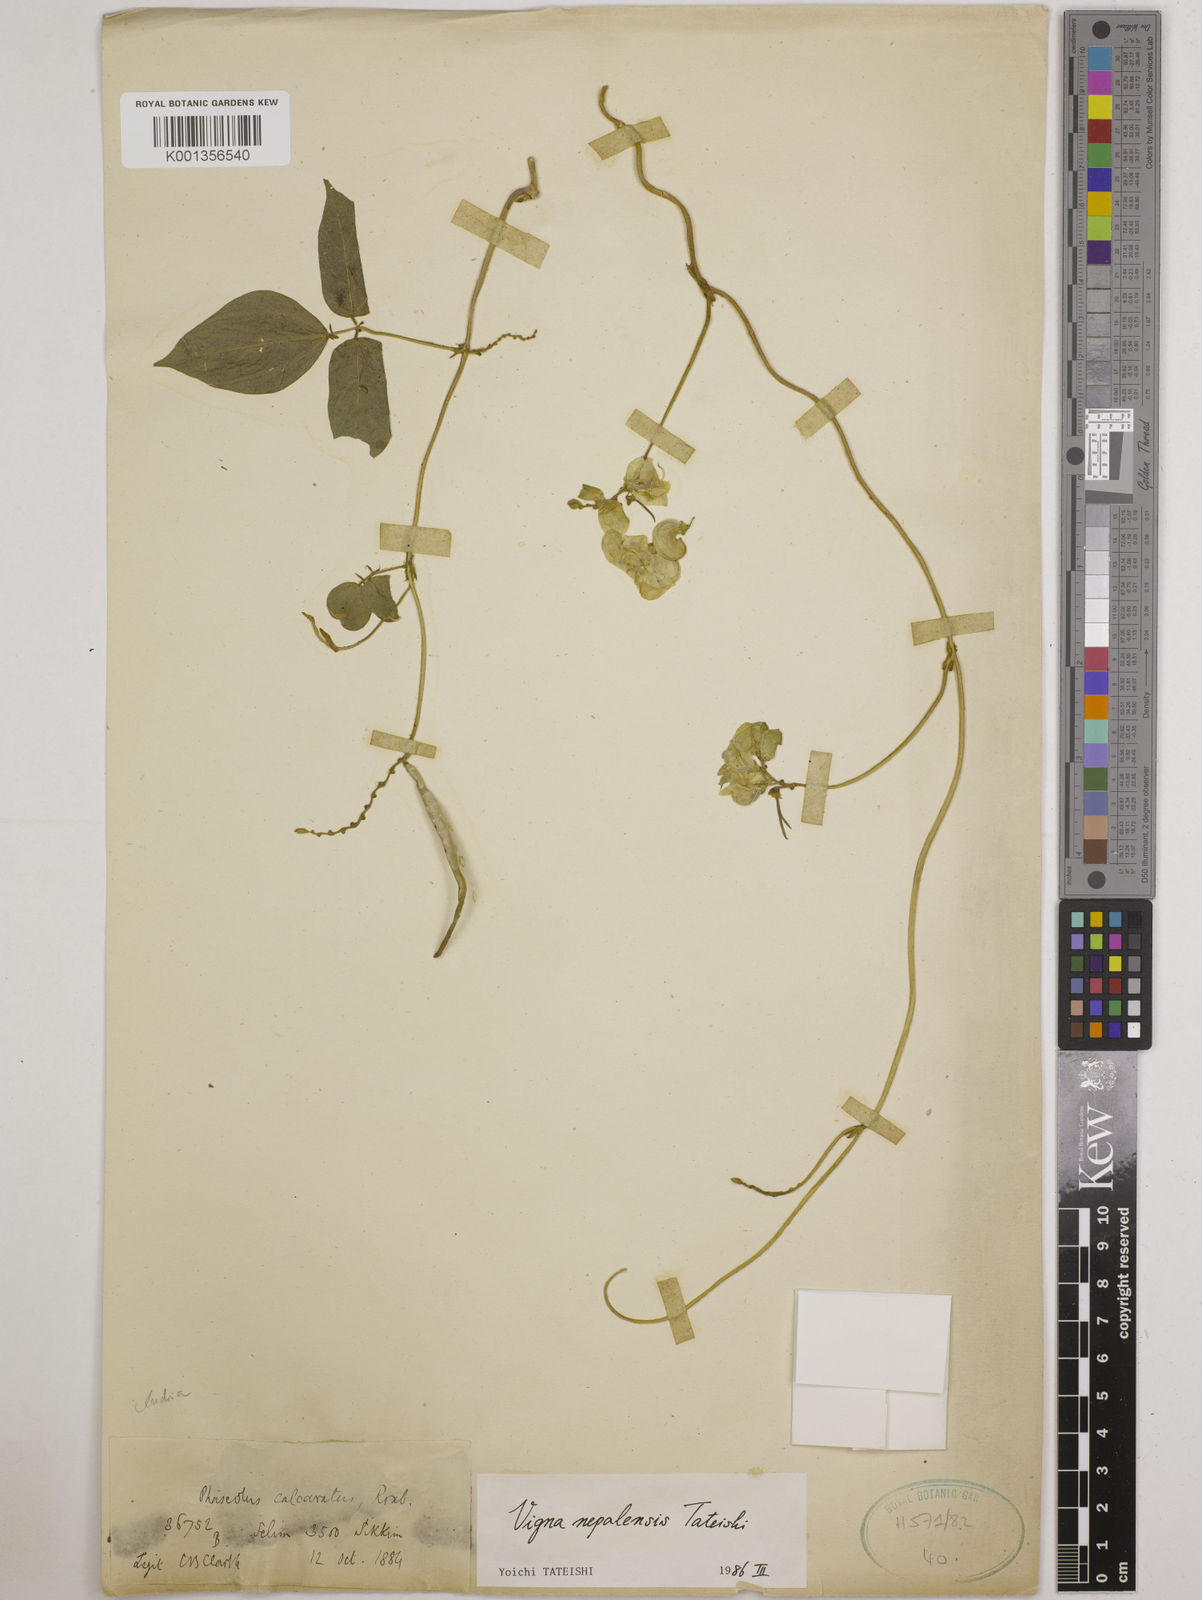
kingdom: Plantae
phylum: Tracheophyta
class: Magnoliopsida
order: Fabales
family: Fabaceae
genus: Vigna
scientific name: Vigna
